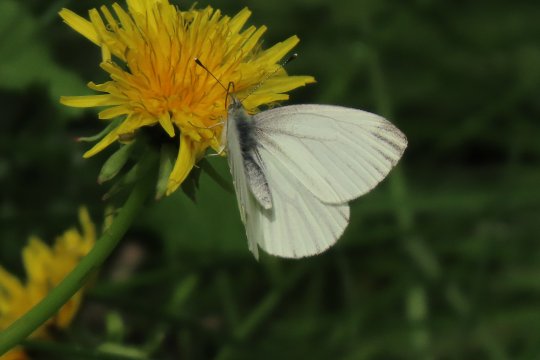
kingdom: Animalia
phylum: Arthropoda
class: Insecta
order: Lepidoptera
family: Pieridae
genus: Pieris
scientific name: Pieris oleracea
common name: Mustard White
